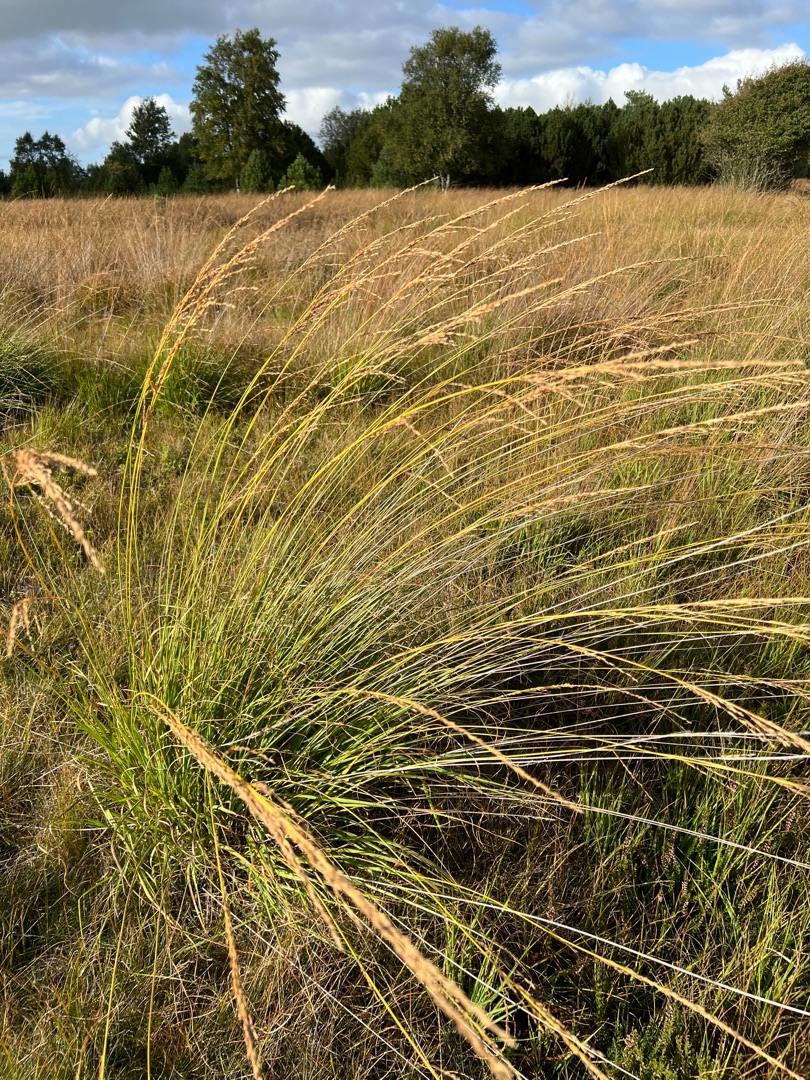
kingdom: Plantae
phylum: Tracheophyta
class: Liliopsida
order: Poales
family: Poaceae
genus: Molinia
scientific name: Molinia caerulea
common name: Blåtop
